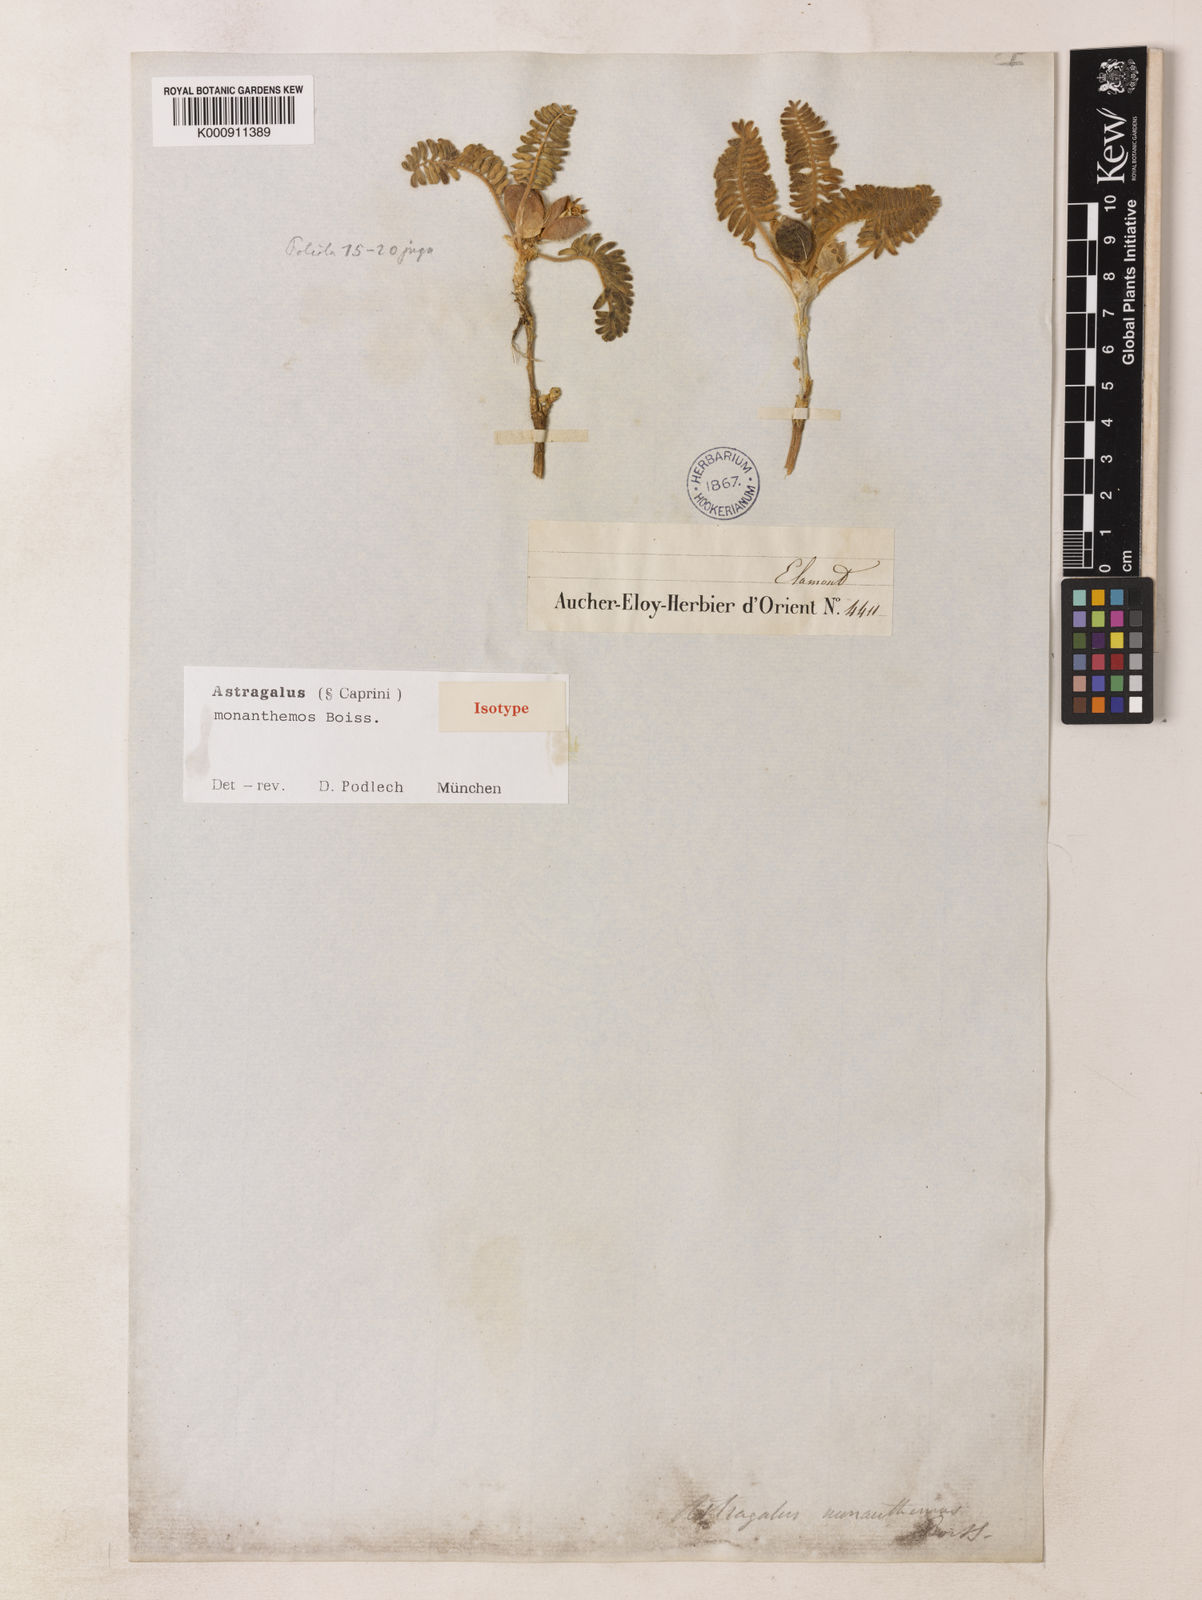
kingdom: Plantae
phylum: Tracheophyta
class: Magnoliopsida
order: Fabales
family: Fabaceae
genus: Astragalus
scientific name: Astragalus monanthemus
